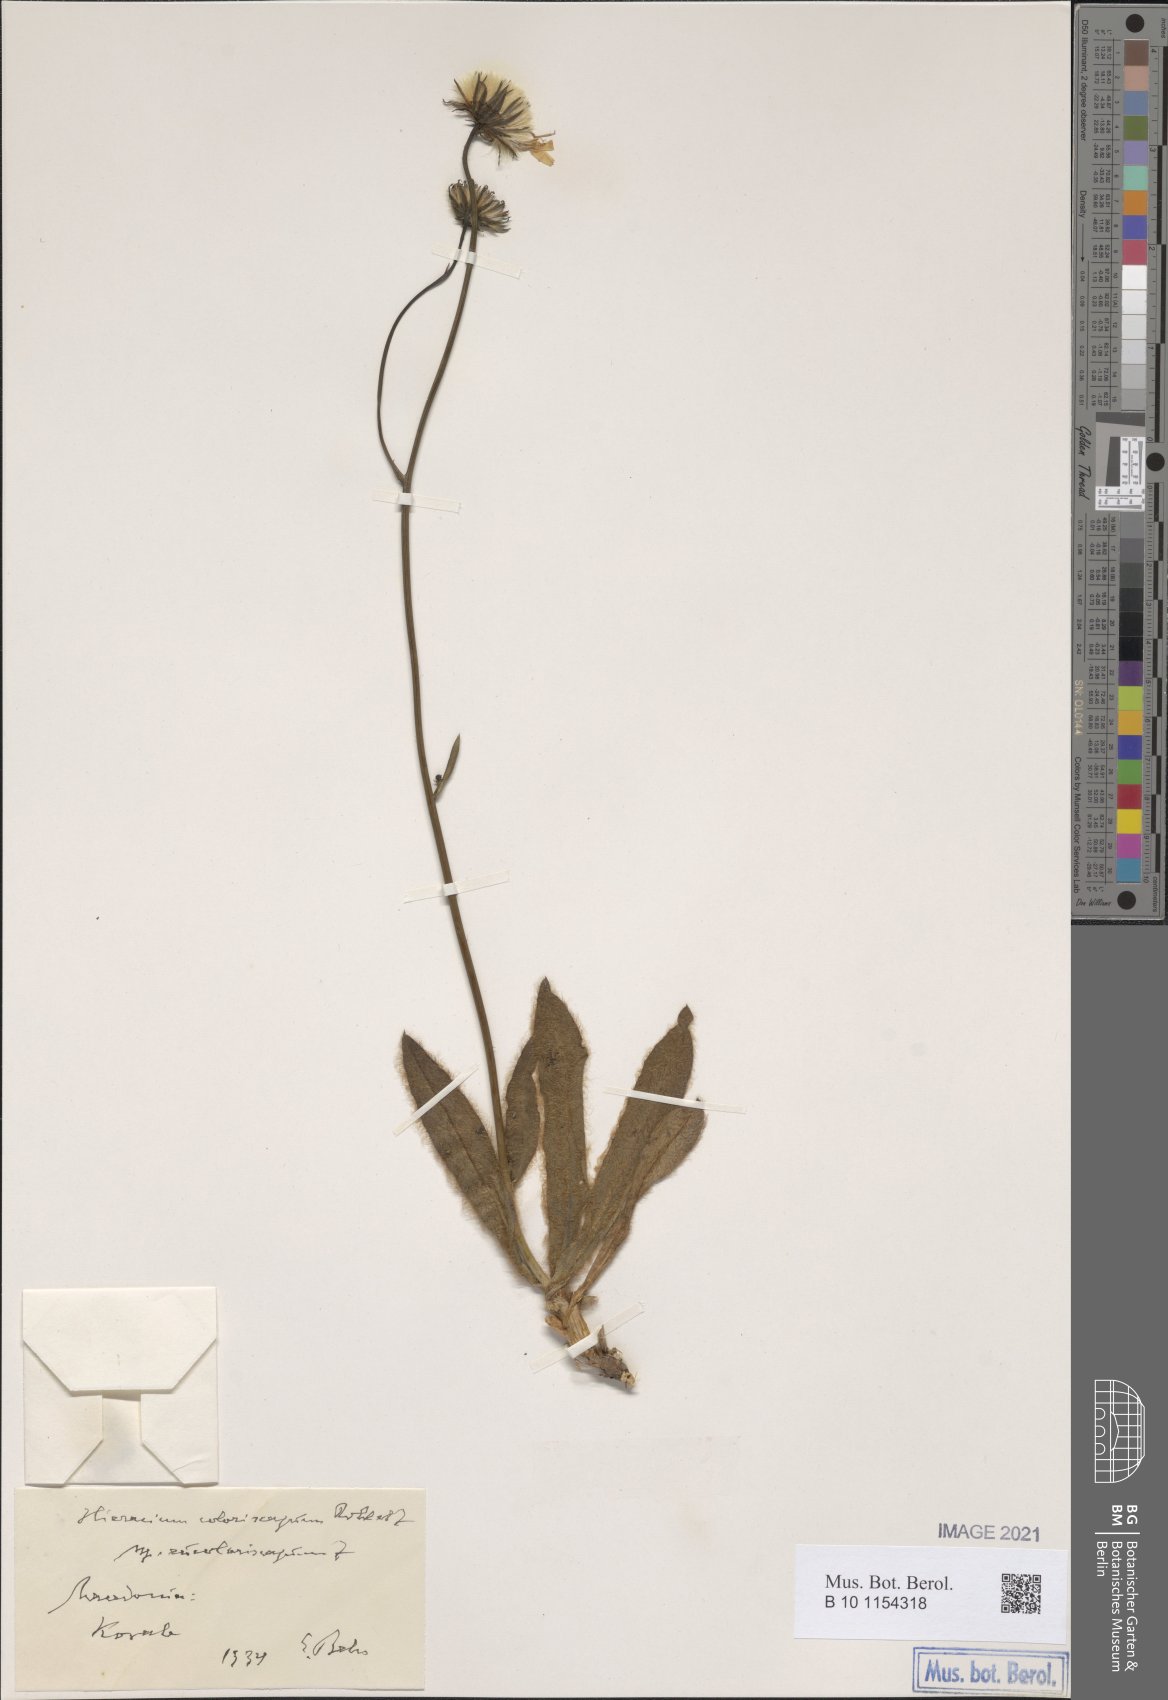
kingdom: Plantae
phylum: Tracheophyta
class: Magnoliopsida
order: Asterales
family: Asteraceae
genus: Hieracium
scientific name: Hieracium coloriscapum
